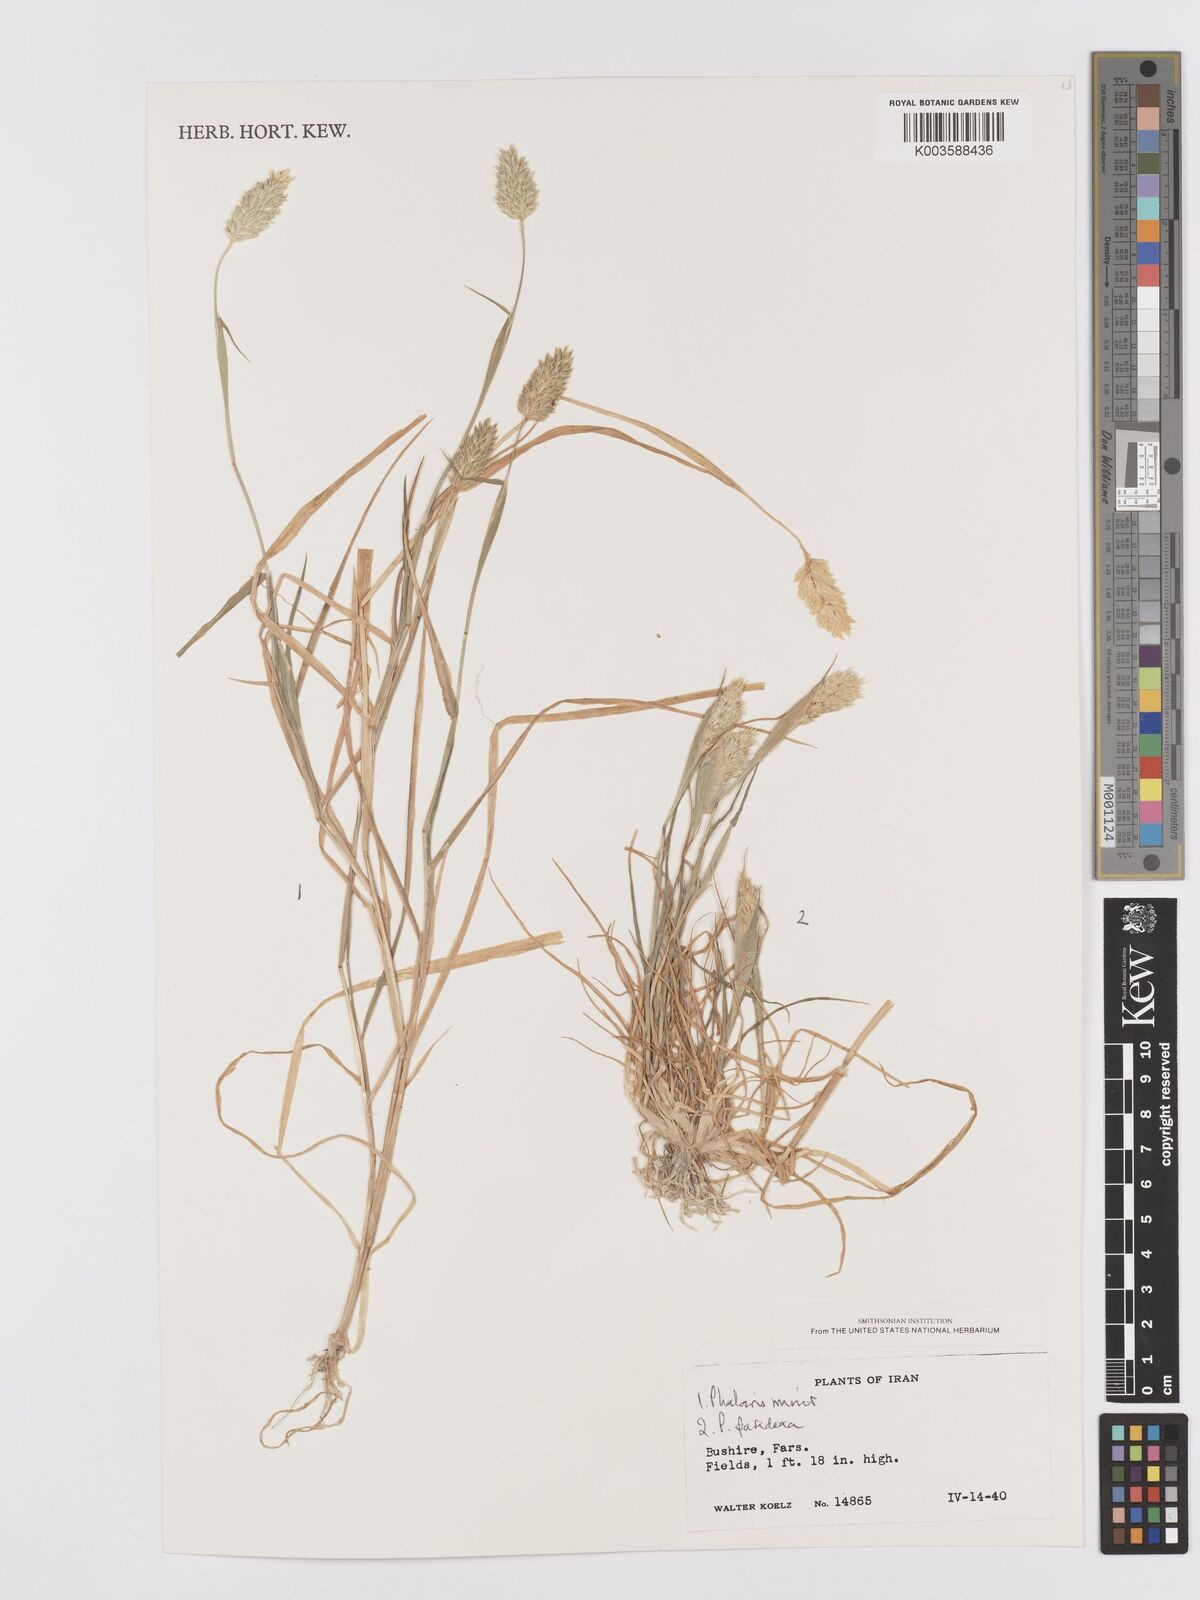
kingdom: Plantae
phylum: Tracheophyta
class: Liliopsida
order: Poales
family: Poaceae
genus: Phalaris
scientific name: Phalaris minor
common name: Littleseed canarygrass
